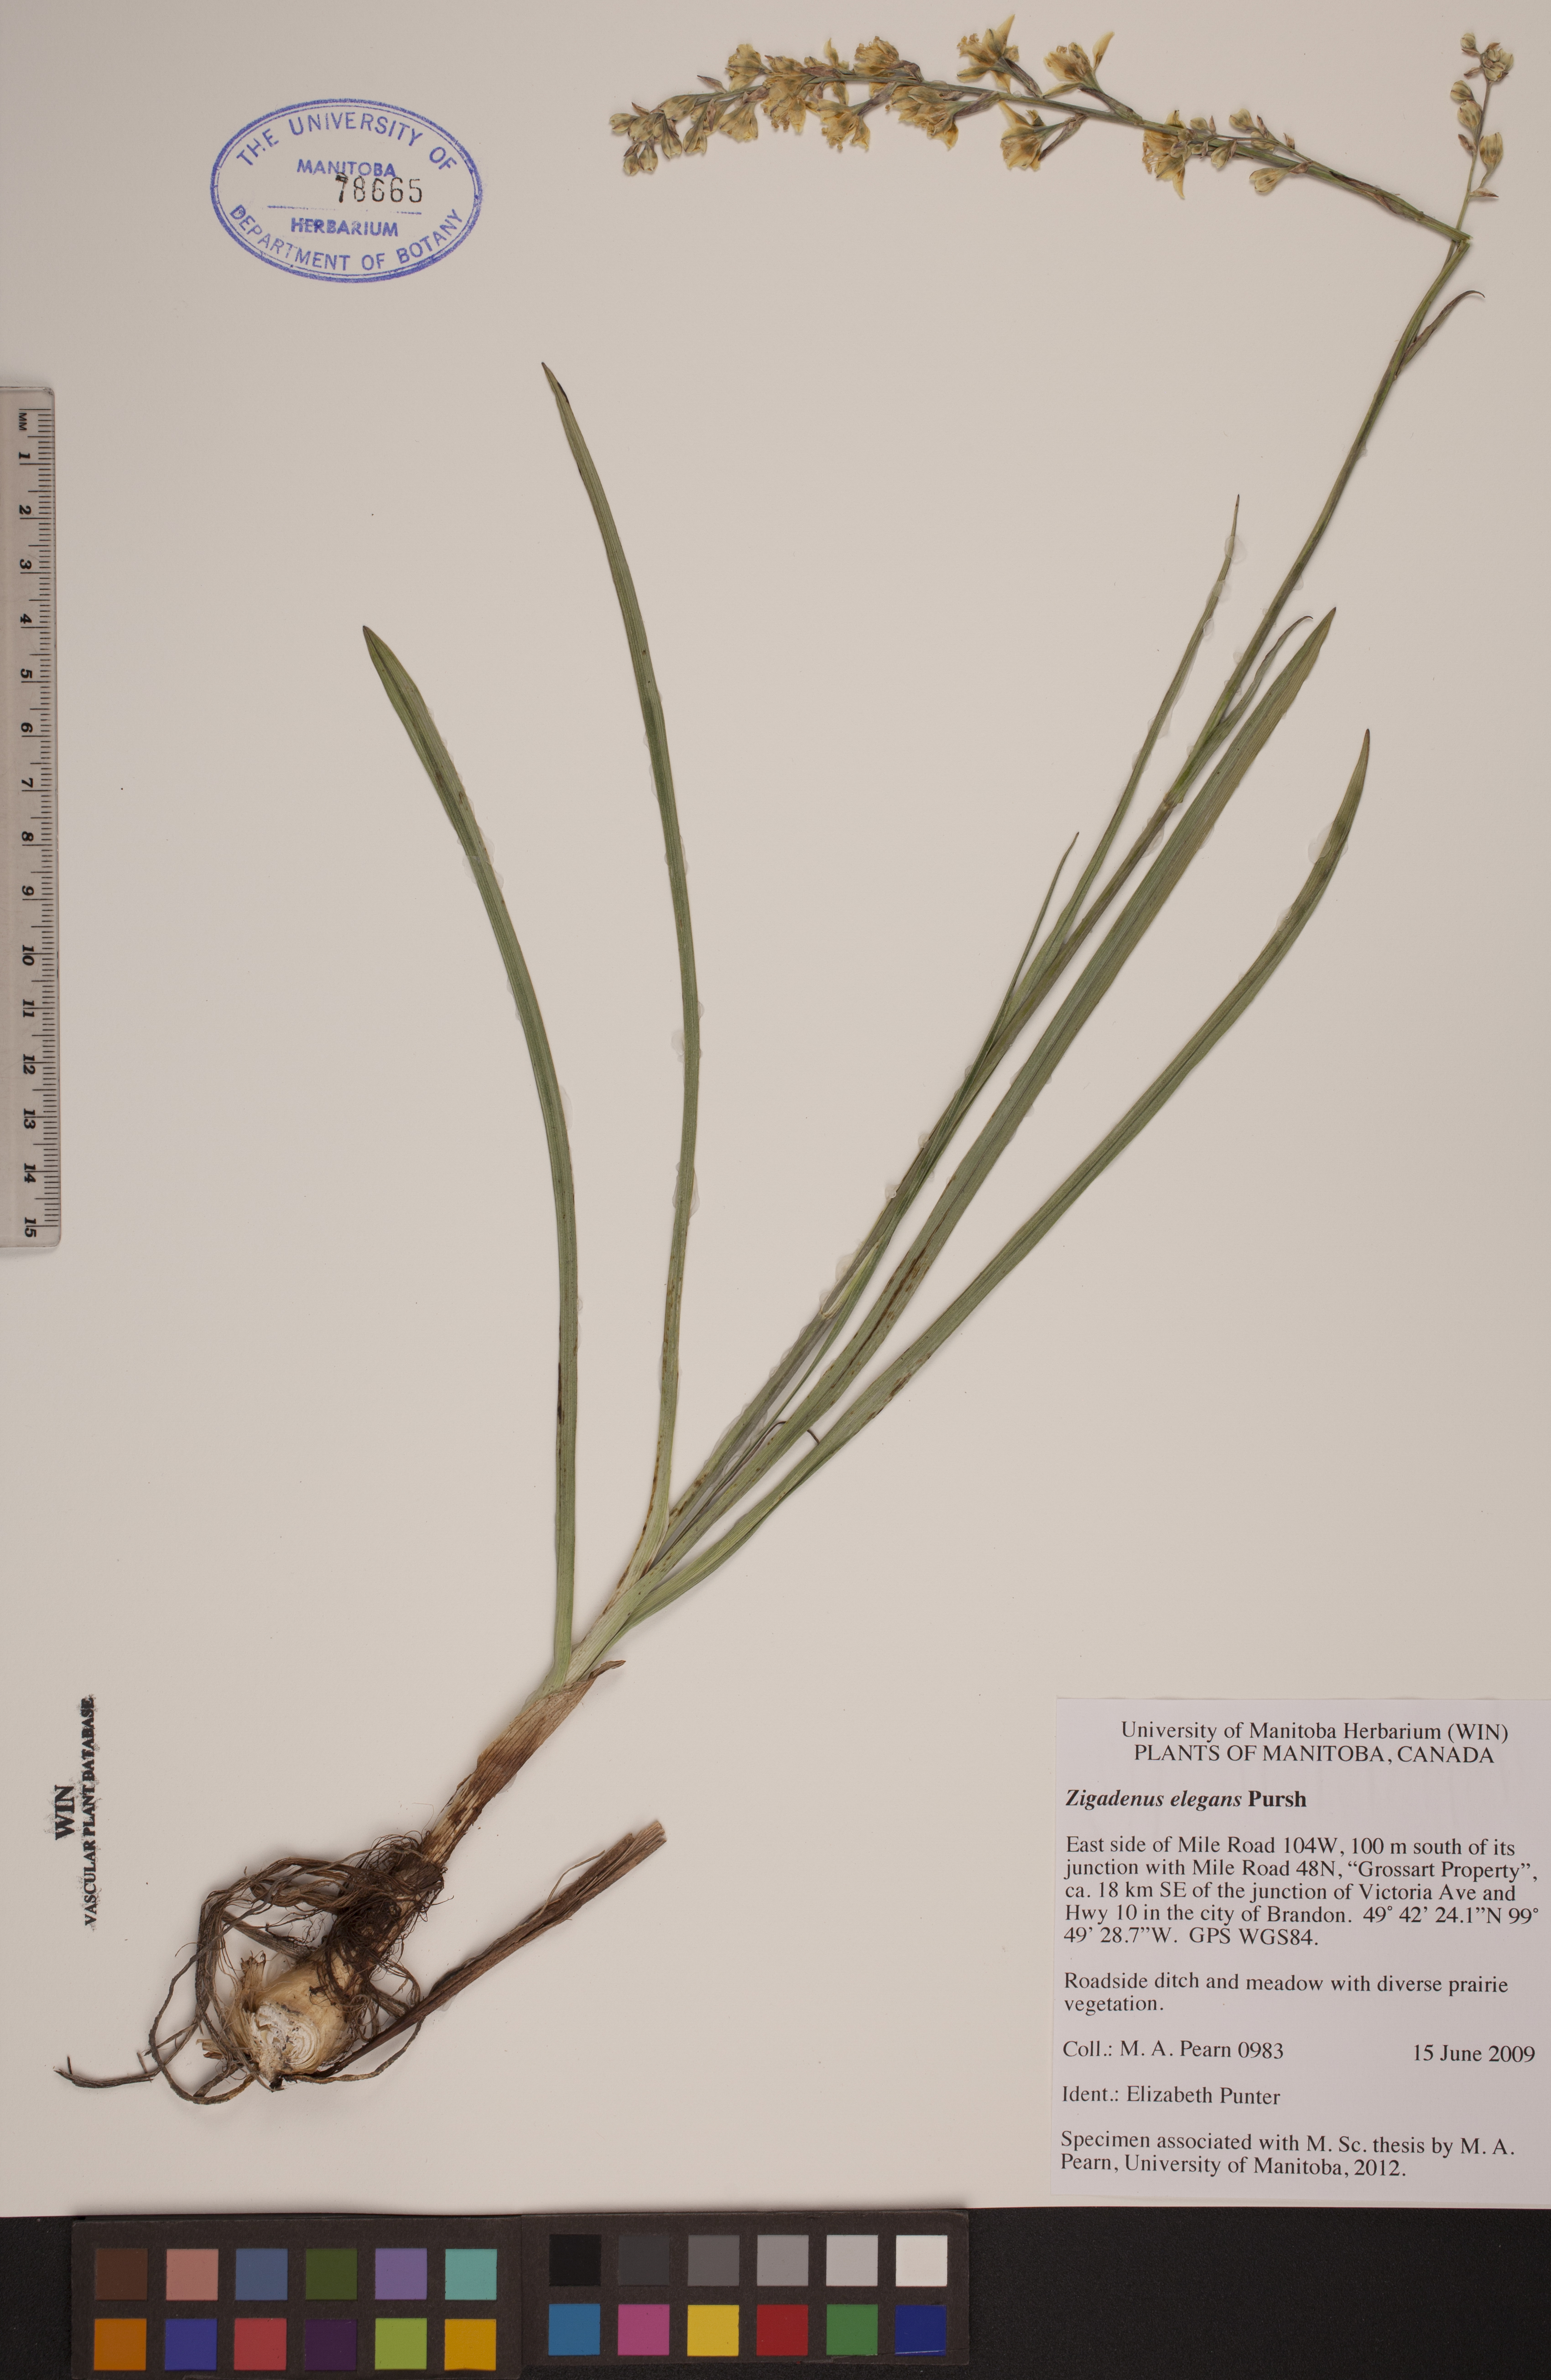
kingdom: Plantae
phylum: Tracheophyta
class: Liliopsida
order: Liliales
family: Melanthiaceae
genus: Anticlea
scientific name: Anticlea elegans
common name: Mountain death camas
